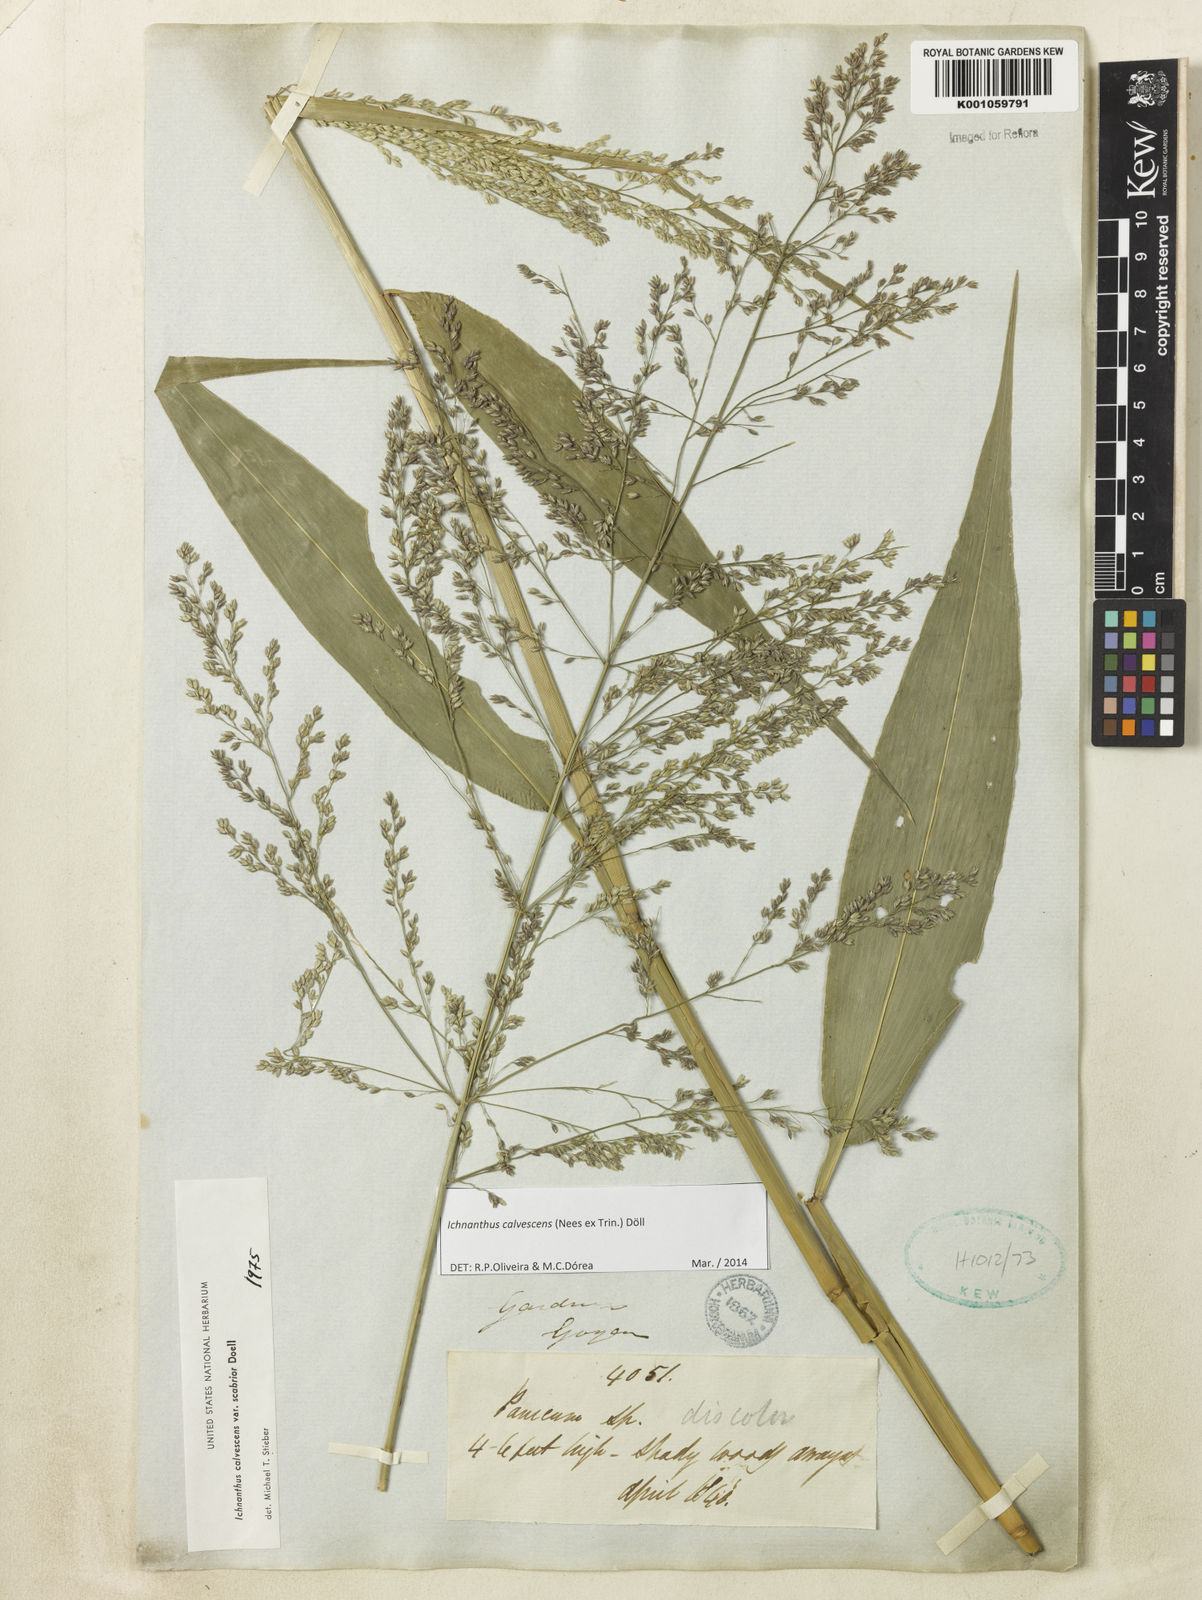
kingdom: Plantae
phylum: Tracheophyta
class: Liliopsida
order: Poales
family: Poaceae
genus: Ichnanthus
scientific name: Ichnanthus
